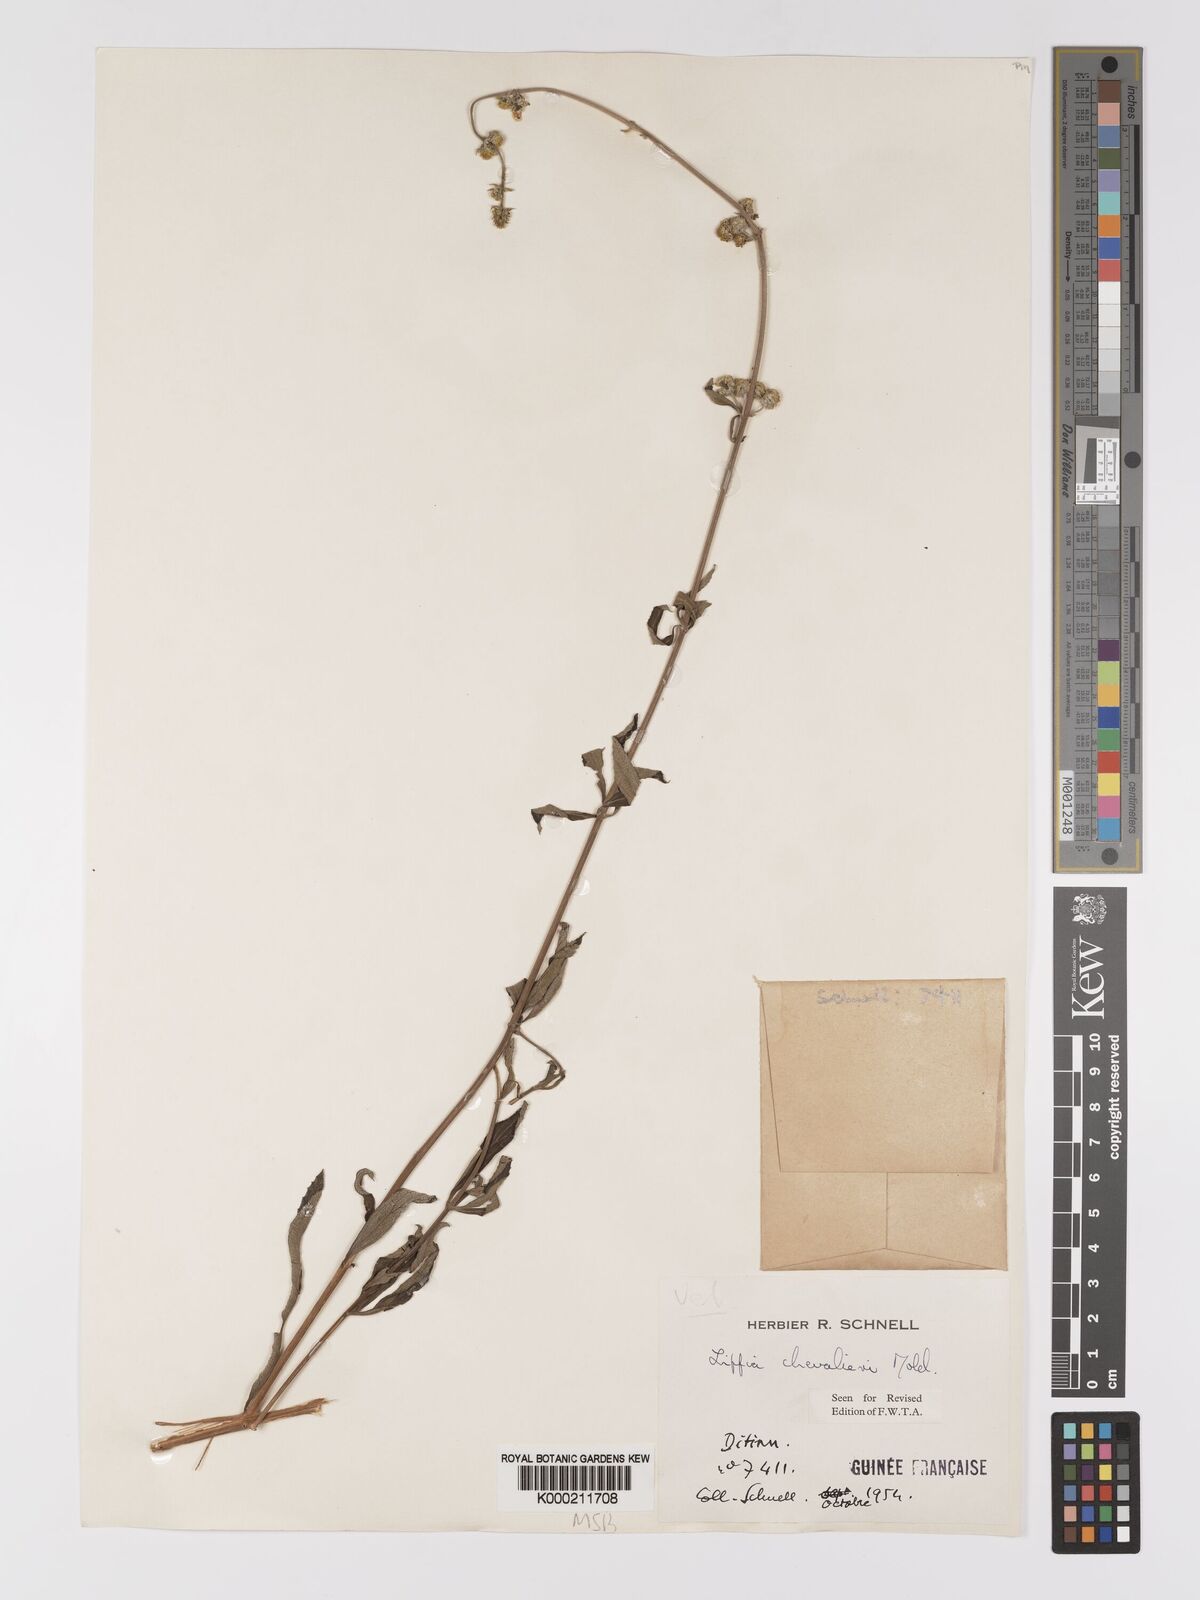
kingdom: Plantae
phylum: Tracheophyta
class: Magnoliopsida
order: Lamiales
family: Verbenaceae
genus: Lippia
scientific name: Lippia chevalieri
